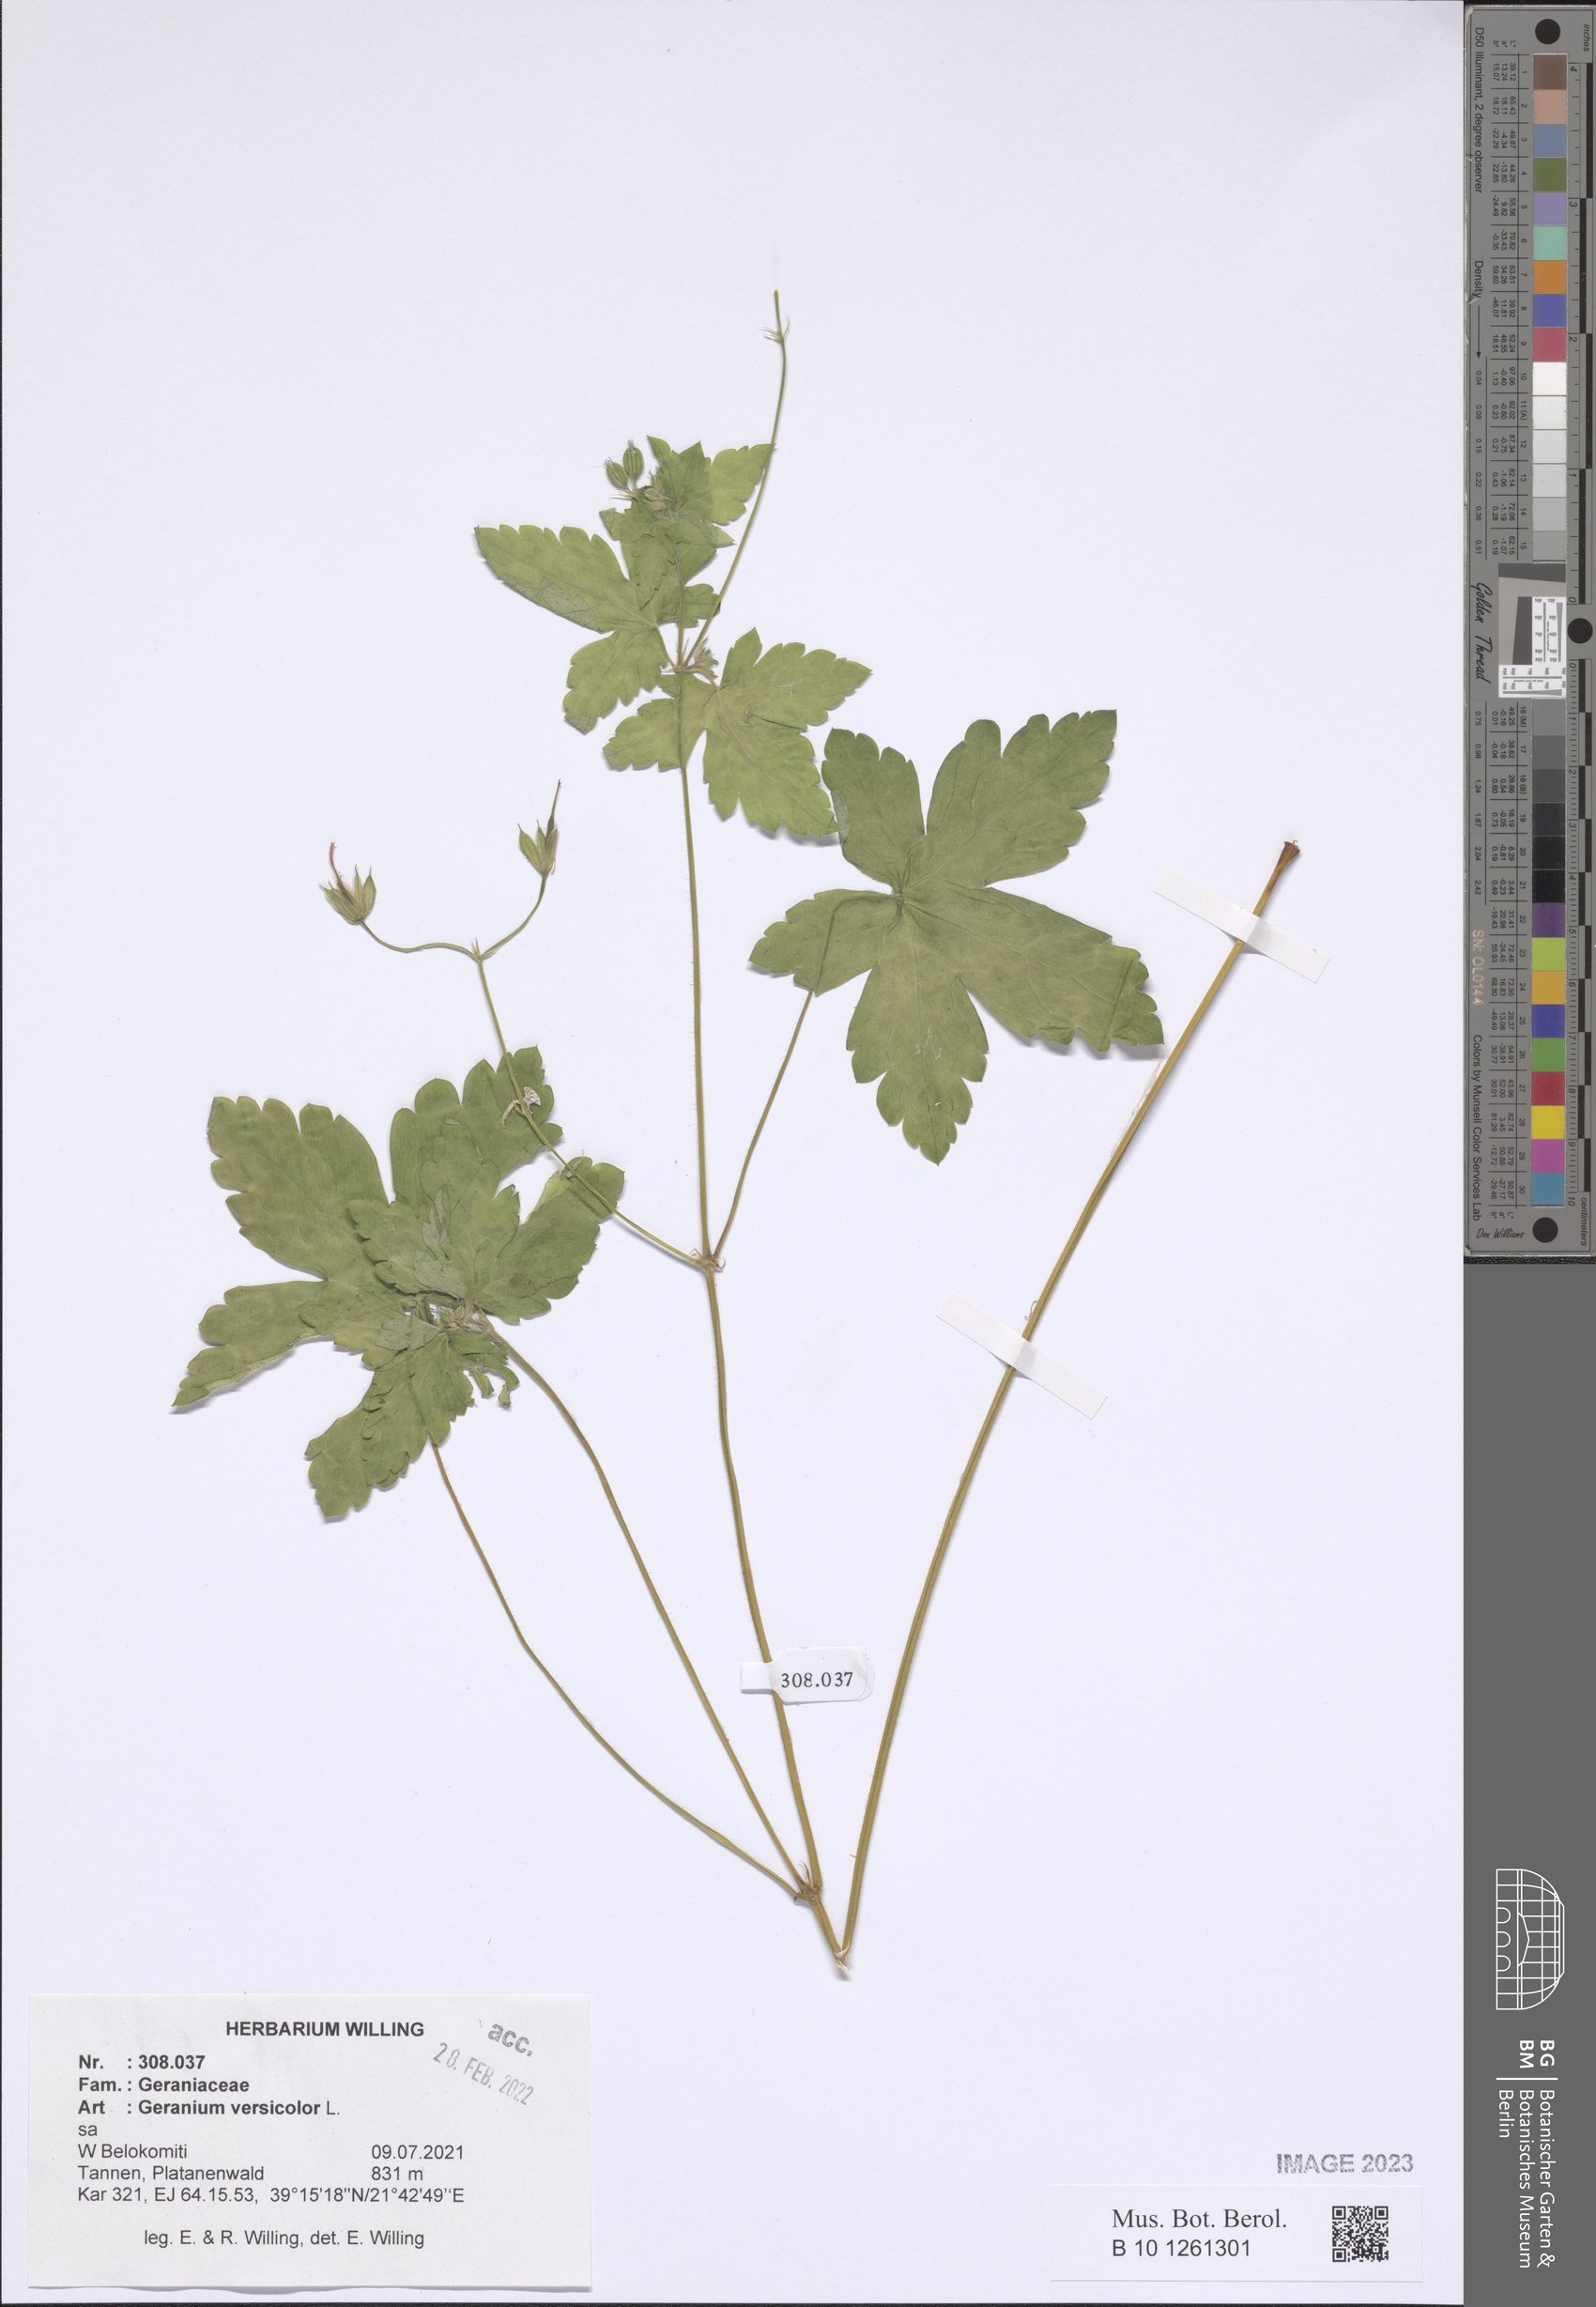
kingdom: Plantae
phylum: Tracheophyta
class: Magnoliopsida
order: Geraniales
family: Geraniaceae
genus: Geranium
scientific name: Geranium versicolor
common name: Pencilled crane's-bill
